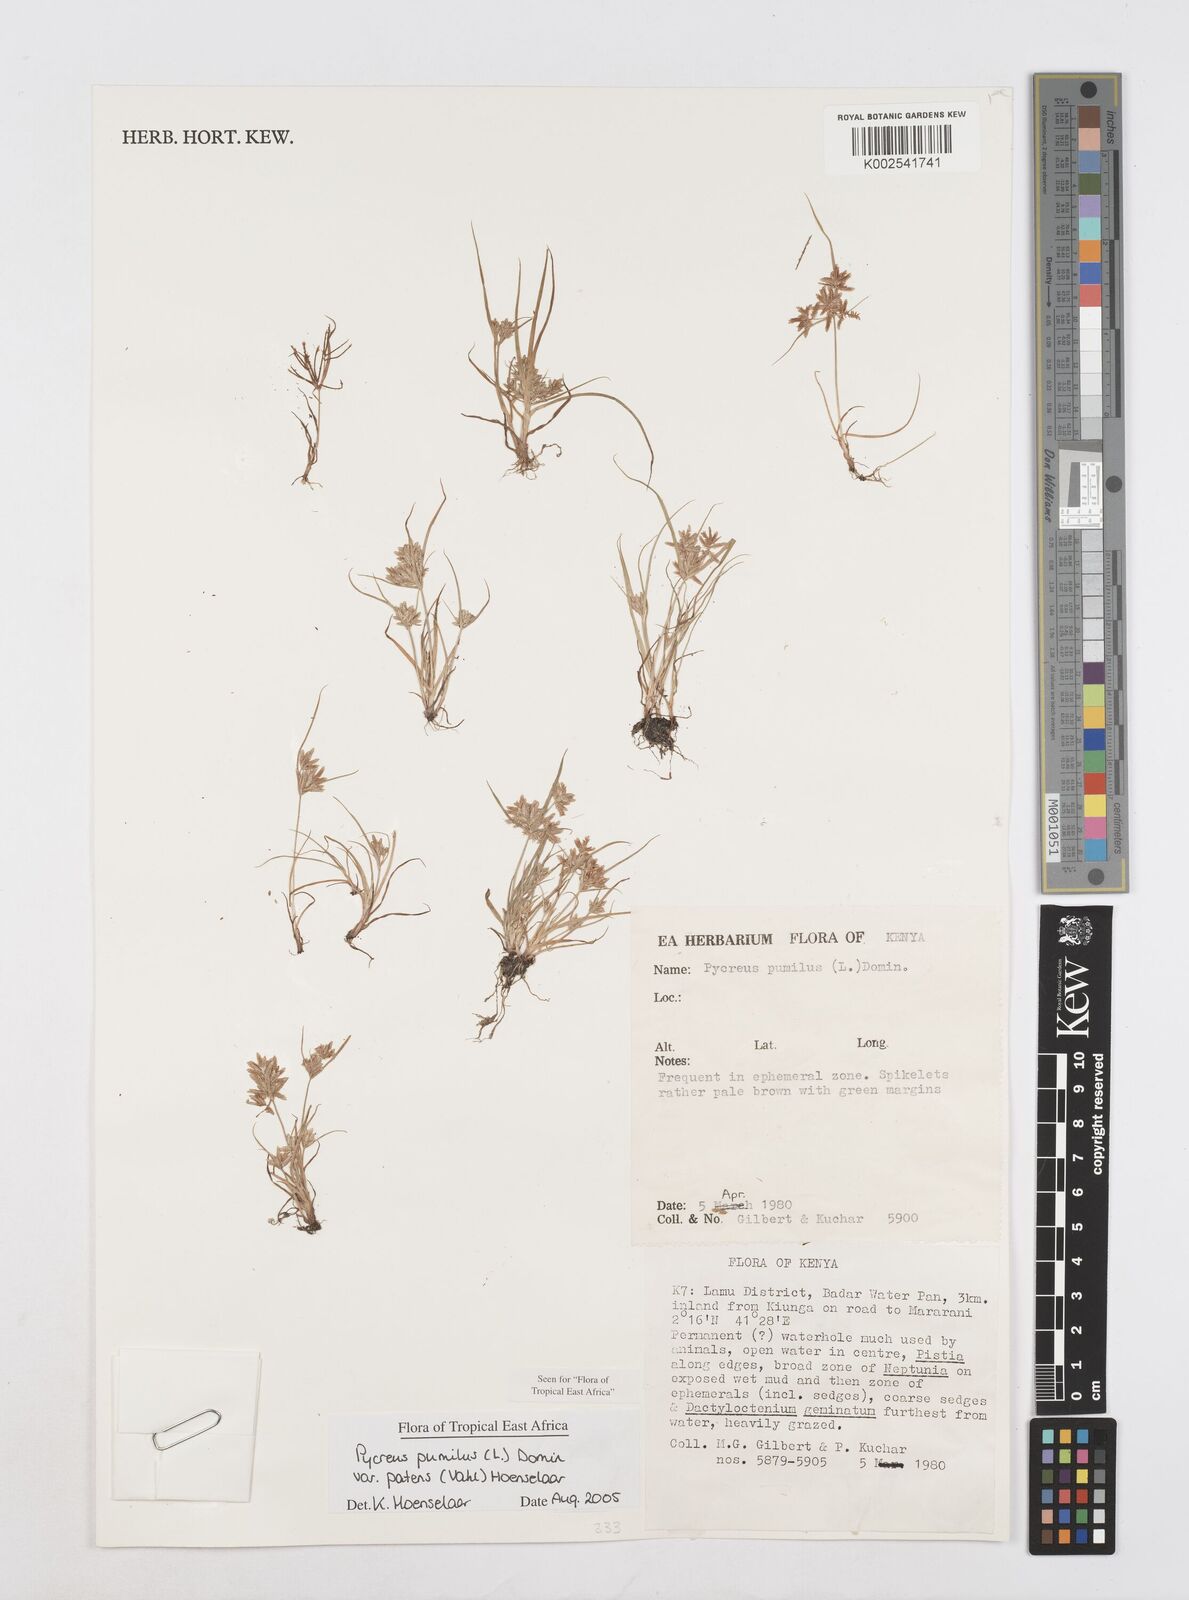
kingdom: Plantae
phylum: Tracheophyta
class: Liliopsida
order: Poales
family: Cyperaceae
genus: Cyperus
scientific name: Cyperus pumilus
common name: Low flatsedge
